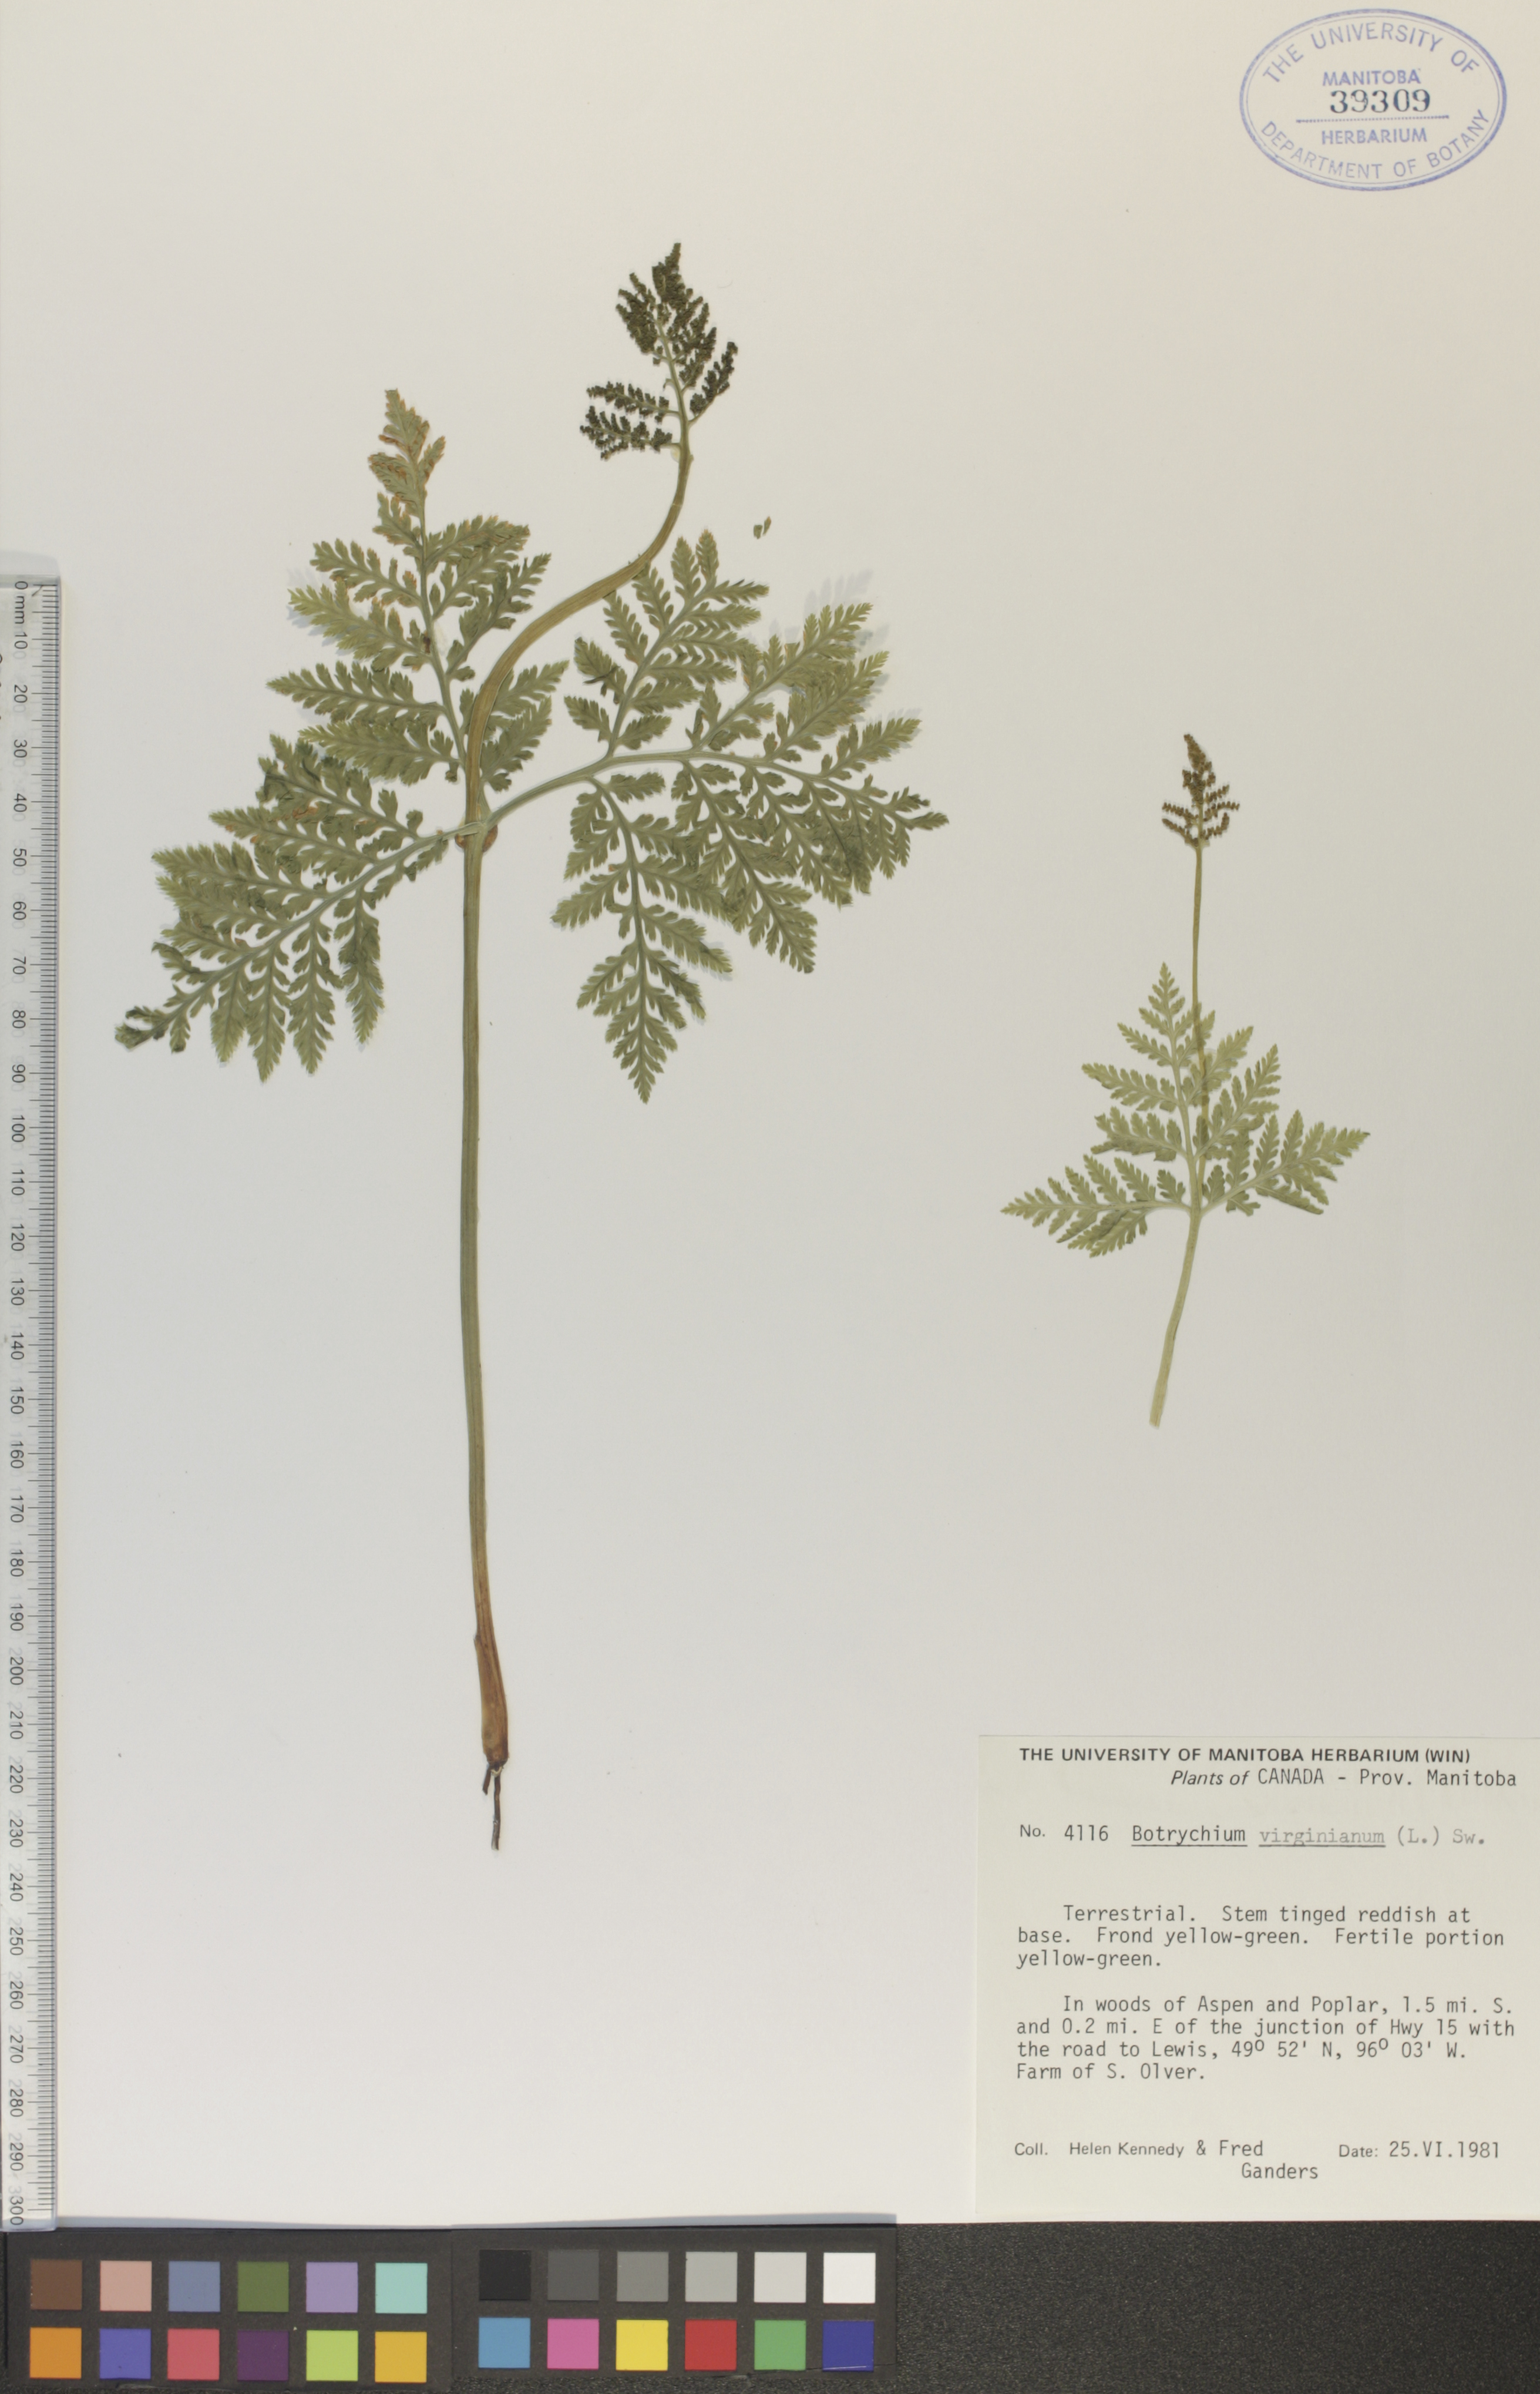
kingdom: Plantae
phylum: Tracheophyta
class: Polypodiopsida
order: Ophioglossales
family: Ophioglossaceae
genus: Botrypus
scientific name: Botrypus virginianus
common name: Common grapefern
